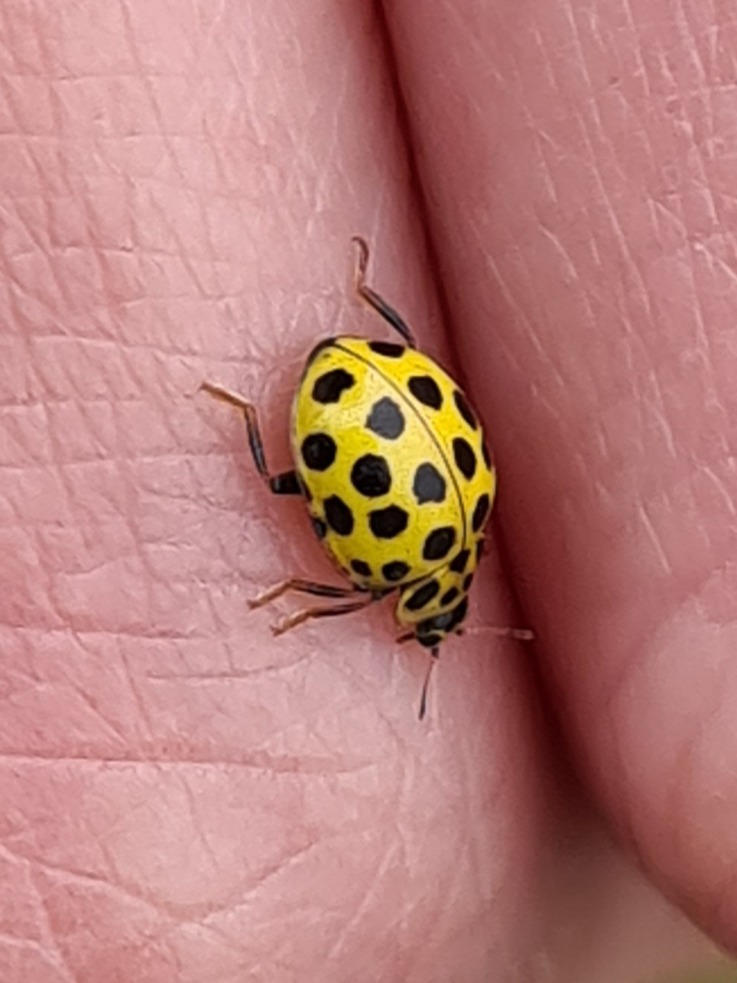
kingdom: Animalia
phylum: Arthropoda
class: Insecta
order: Coleoptera
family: Coccinellidae
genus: Psyllobora
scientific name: Psyllobora vigintiduopunctata
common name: Toogtyveplettet mariehøne
